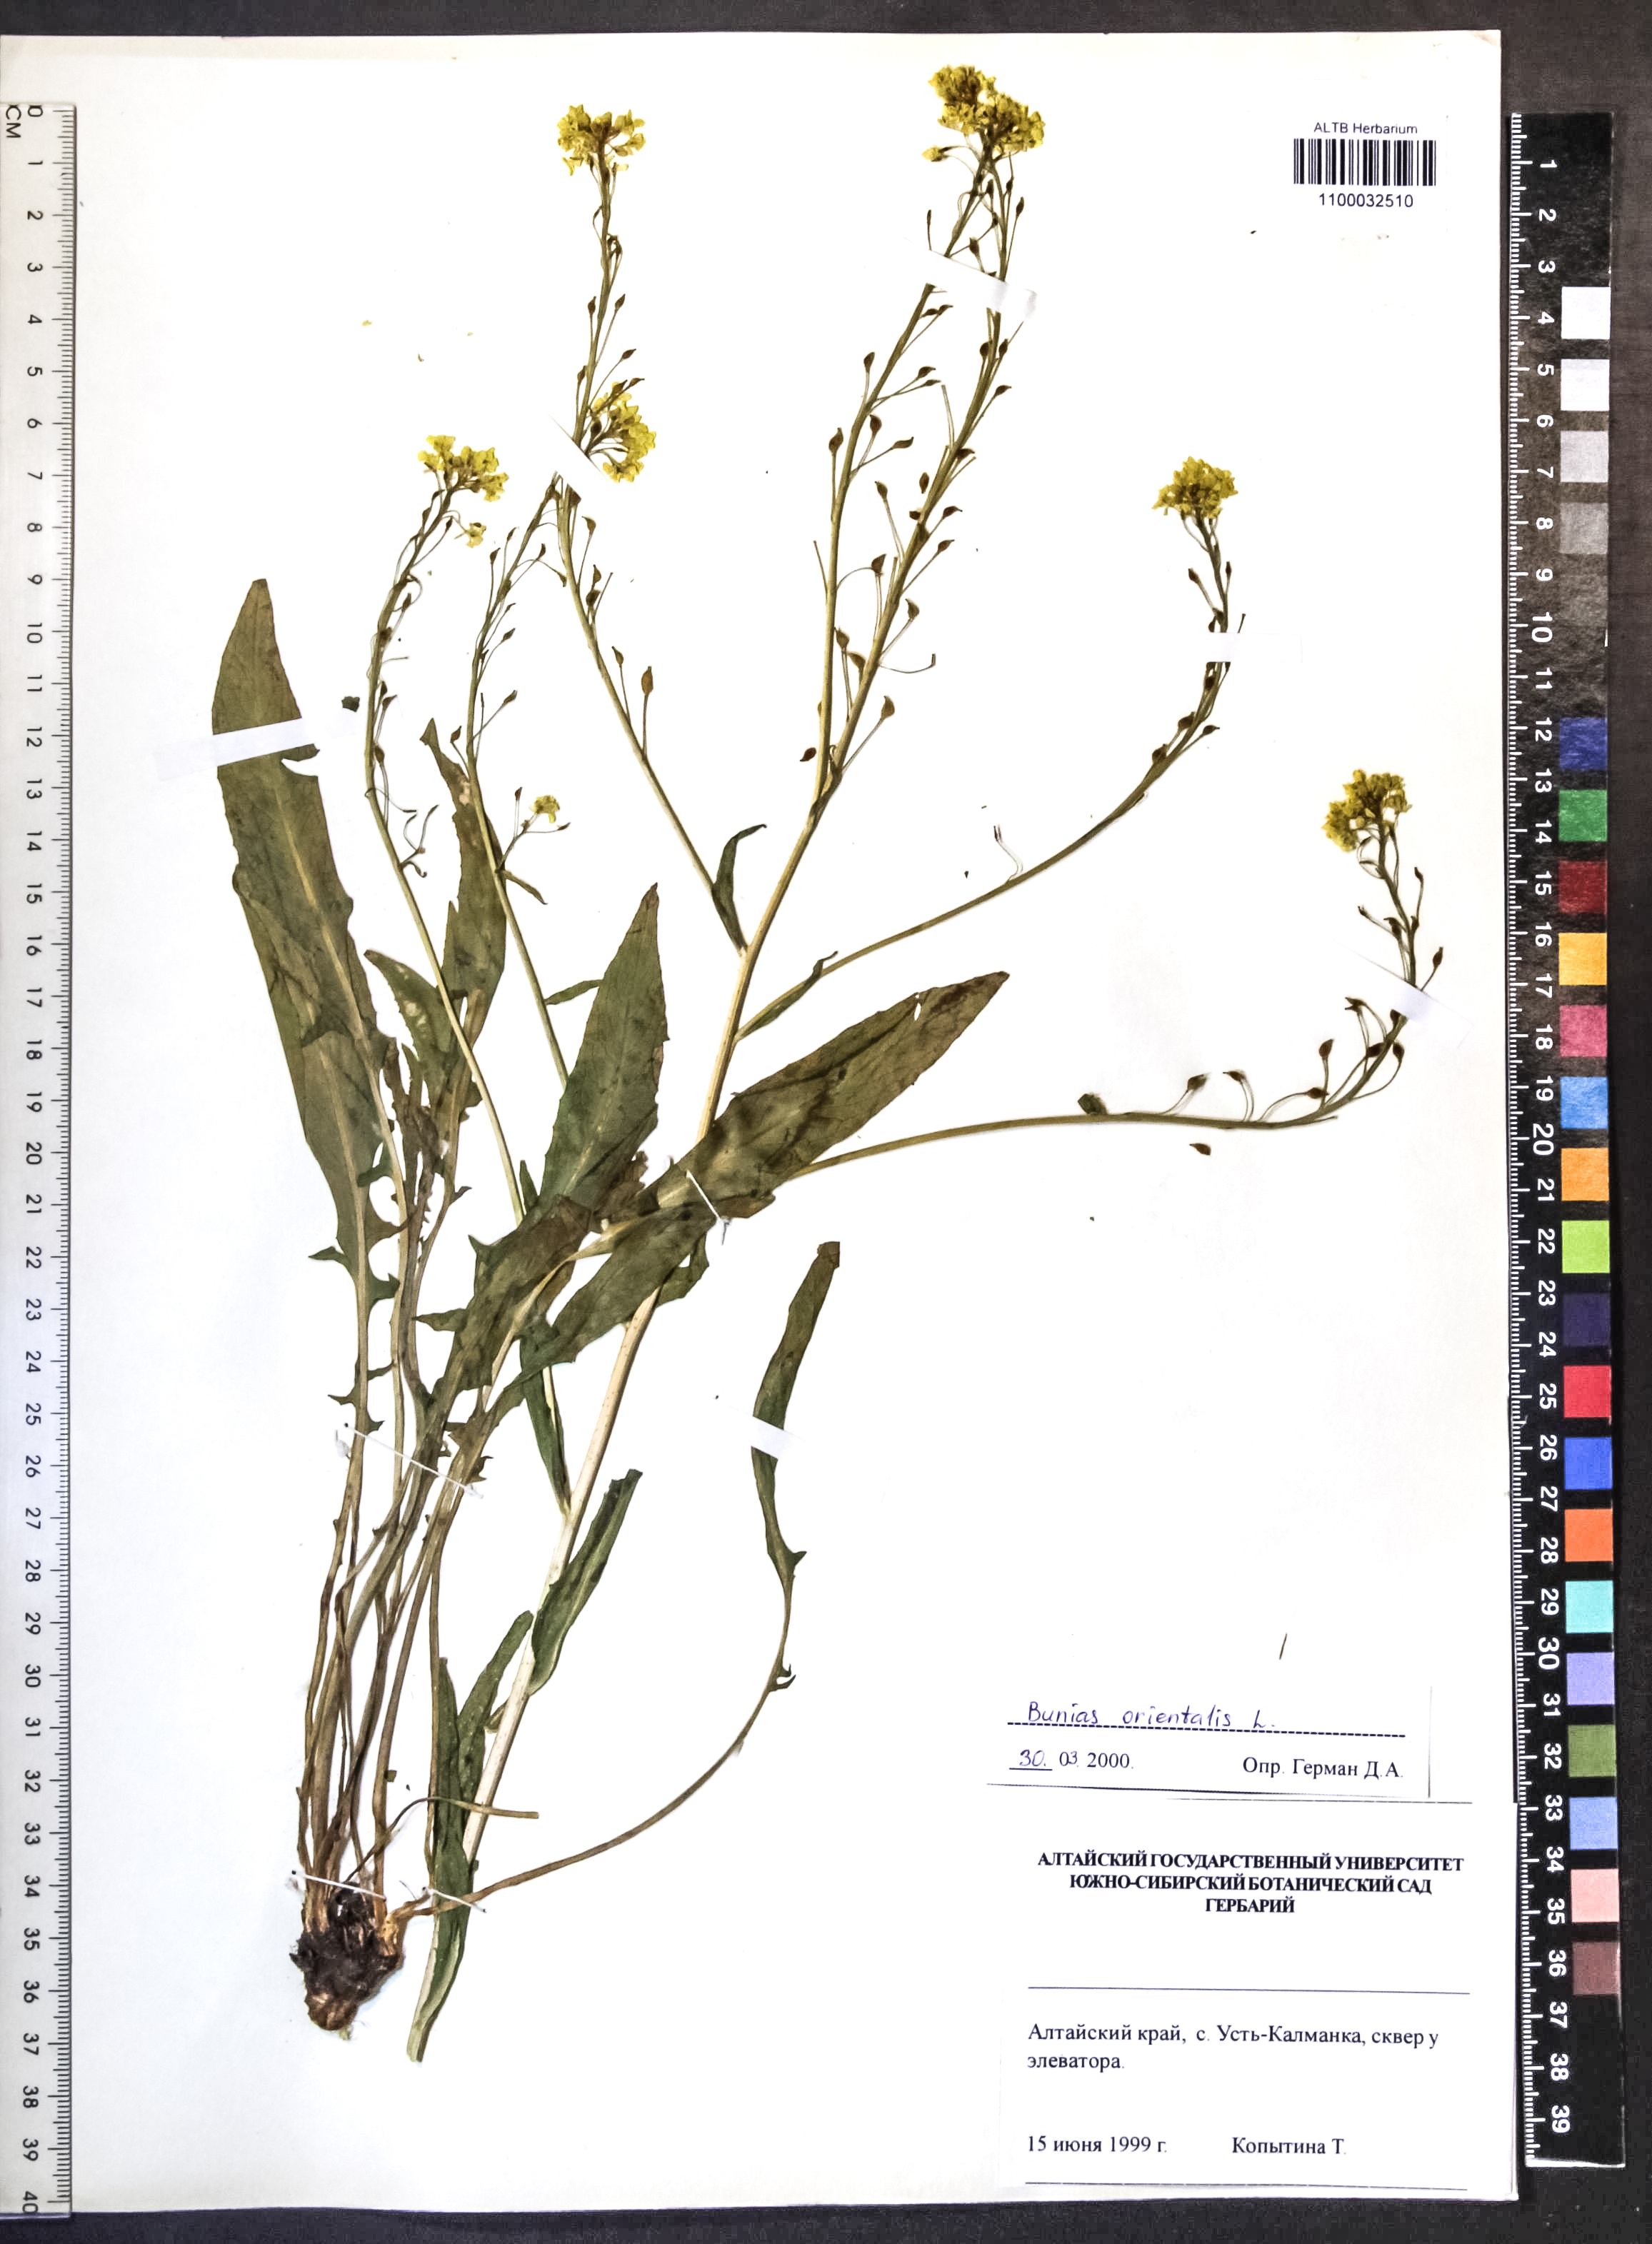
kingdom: Plantae
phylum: Tracheophyta
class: Magnoliopsida
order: Brassicales
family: Brassicaceae
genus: Bunias
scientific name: Bunias orientalis
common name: Warty-cabbage
